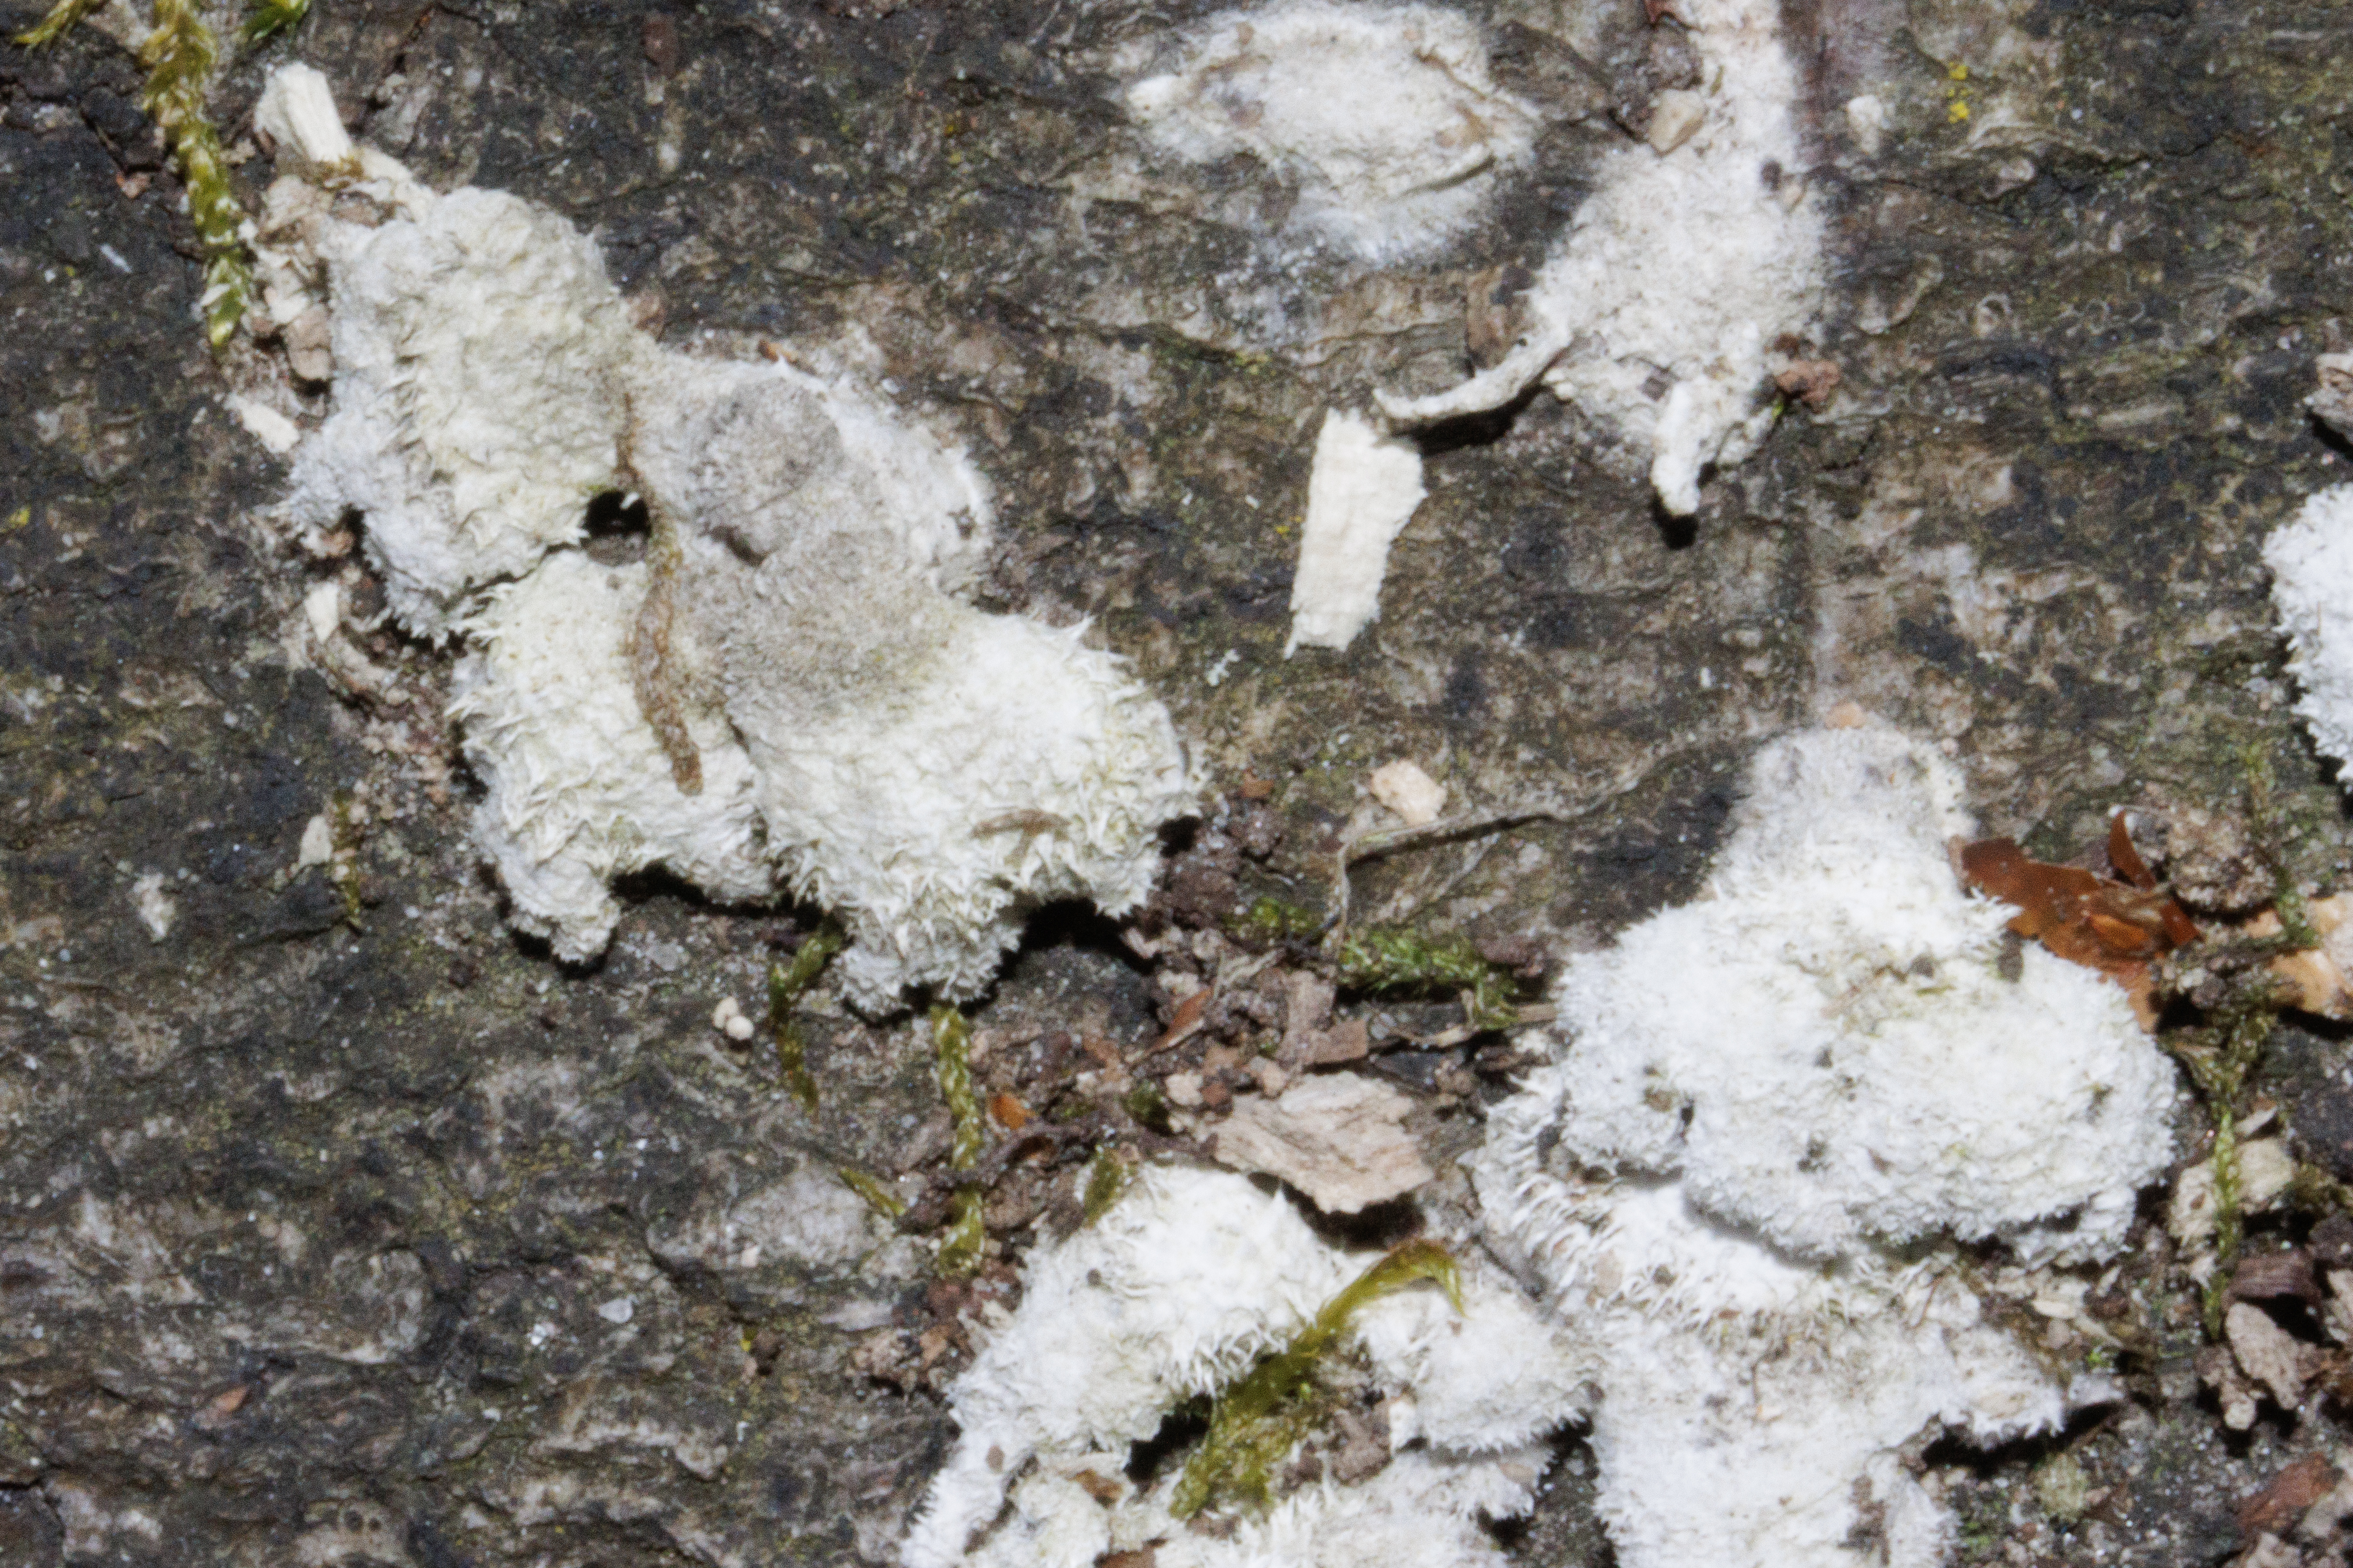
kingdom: Fungi
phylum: Basidiomycota
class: Agaricomycetes
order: Agaricales
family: Schizophyllaceae
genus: Schizophyllum
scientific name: Schizophyllum commune
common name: Kløvblad
